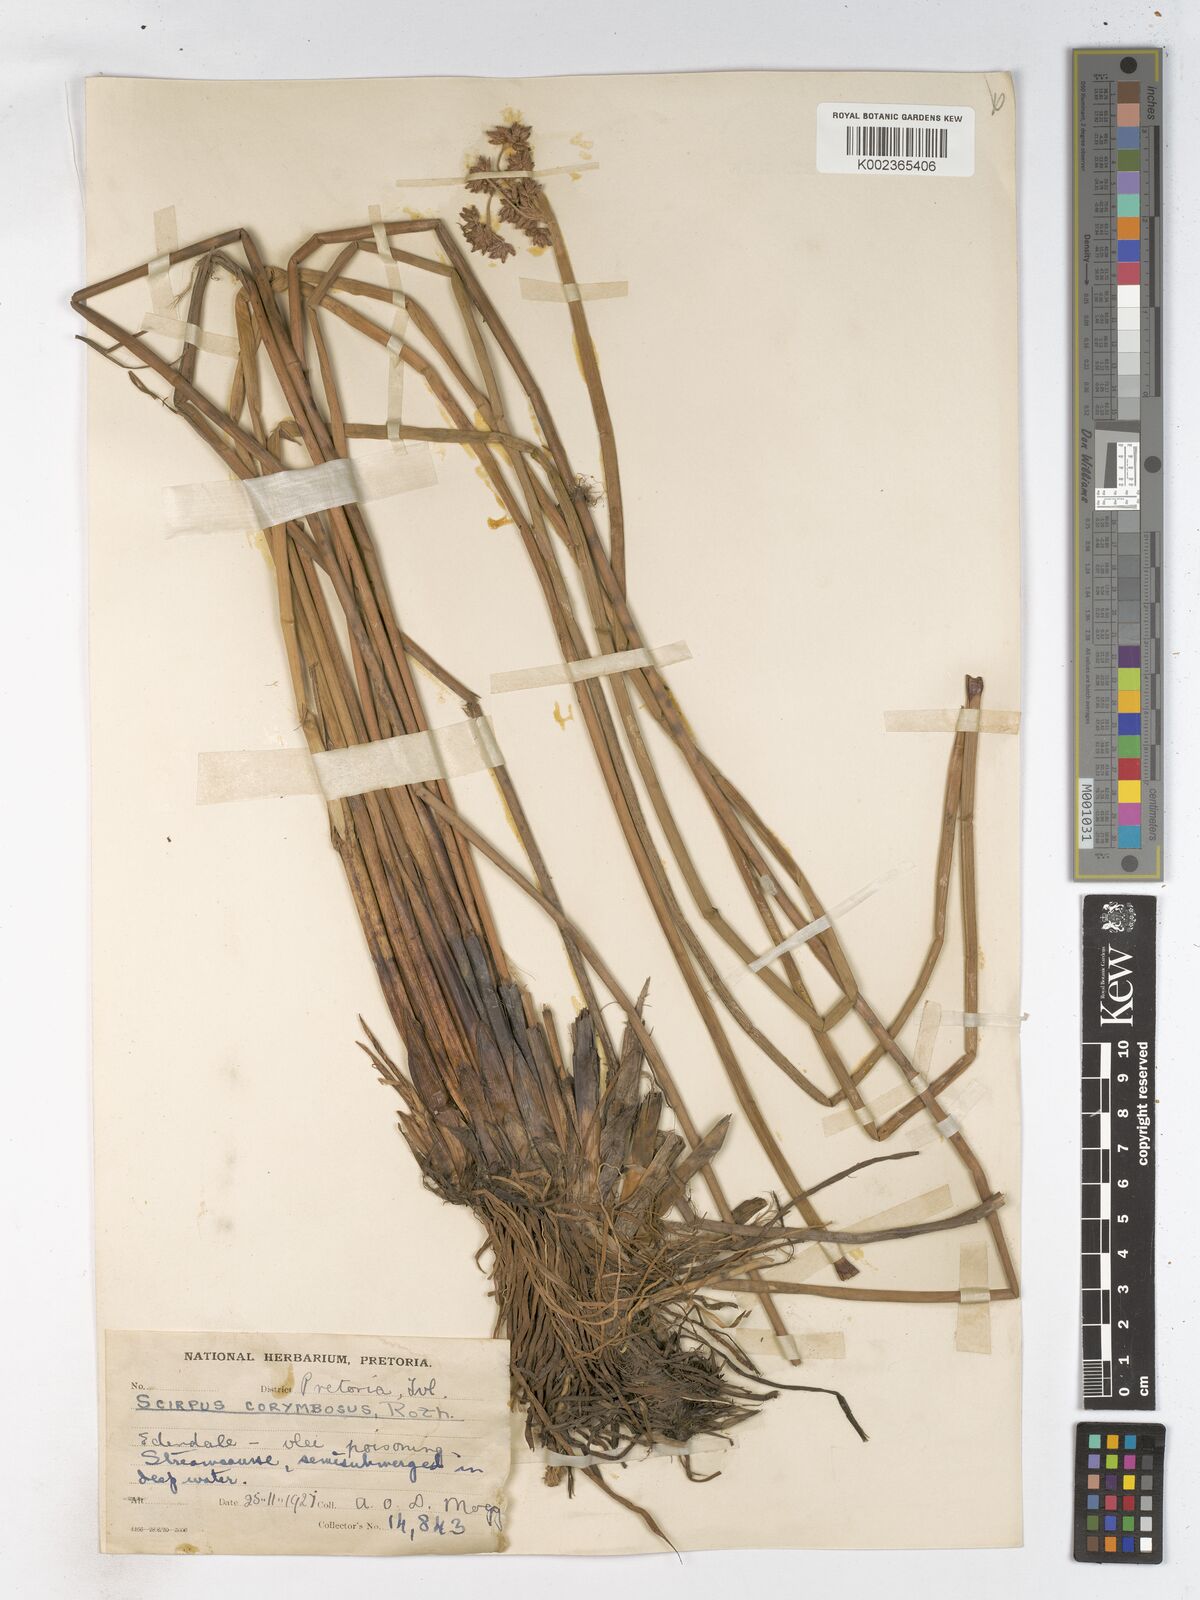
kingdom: Plantae
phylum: Tracheophyta
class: Liliopsida
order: Poales
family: Cyperaceae
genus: Schoenoplectiella
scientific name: Schoenoplectiella brachyceras
